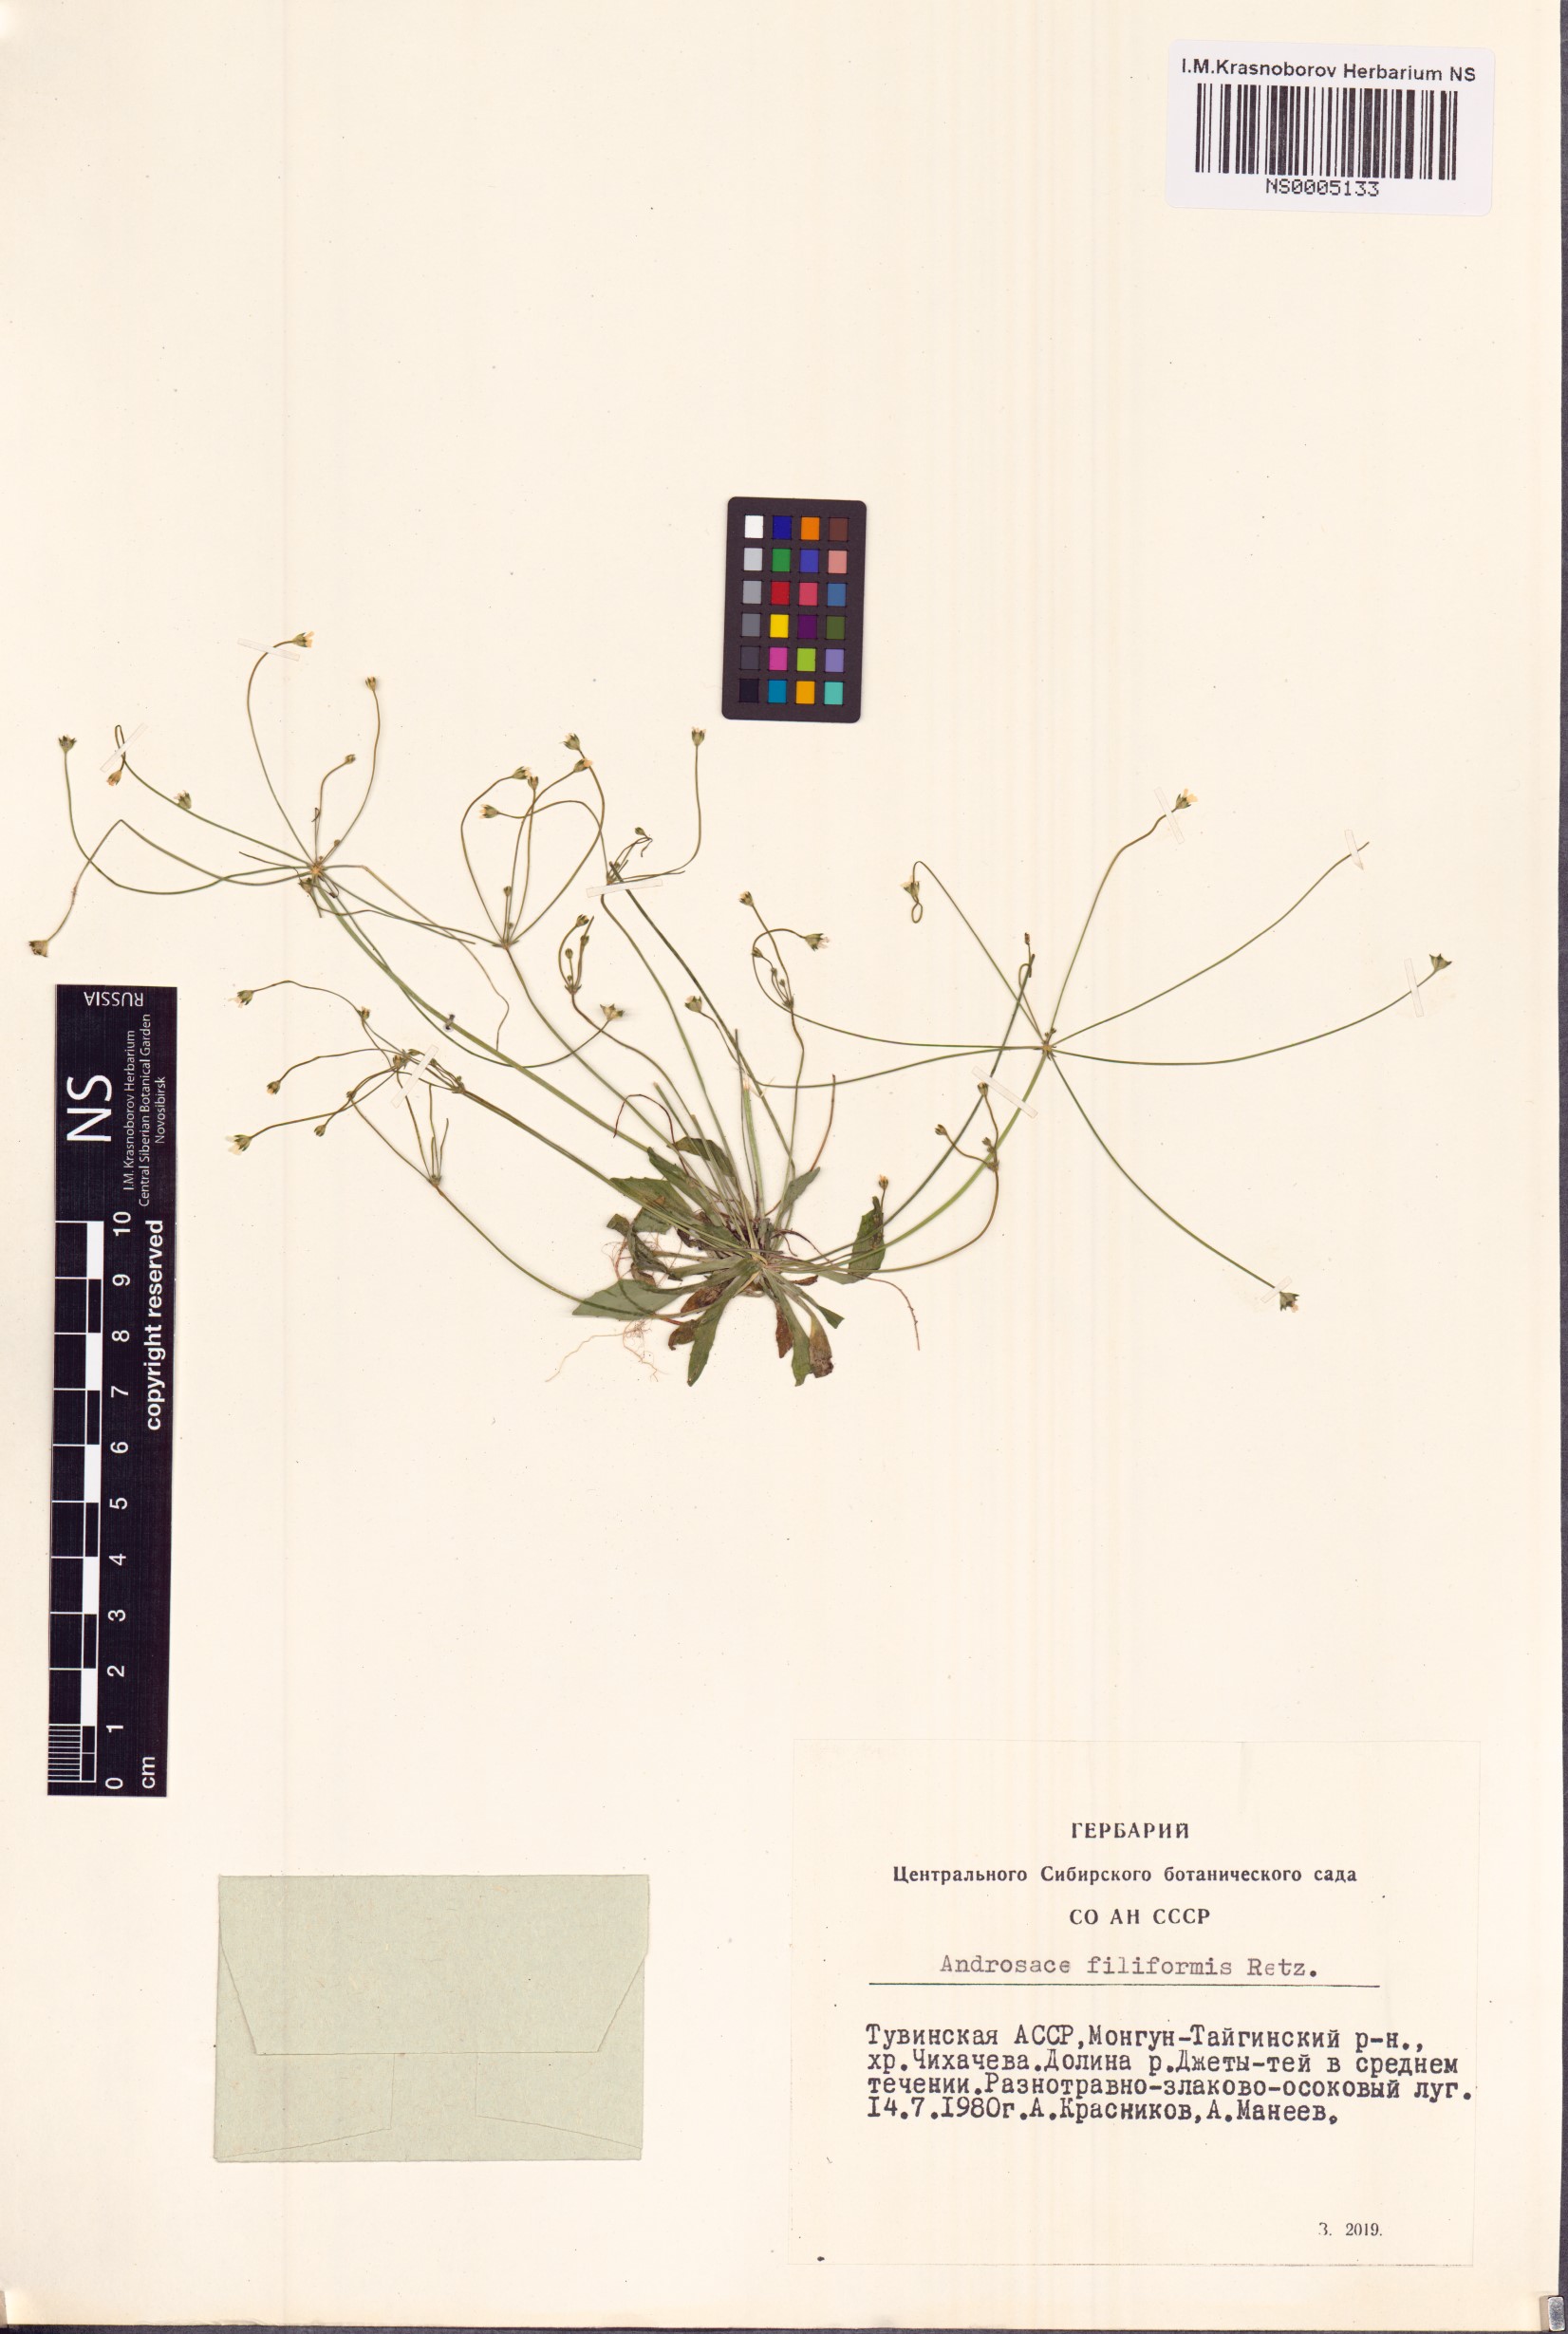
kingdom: Plantae
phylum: Tracheophyta
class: Magnoliopsida
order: Ericales
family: Primulaceae
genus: Androsace
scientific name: Androsace filiformis
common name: Filiform rock jasmine
